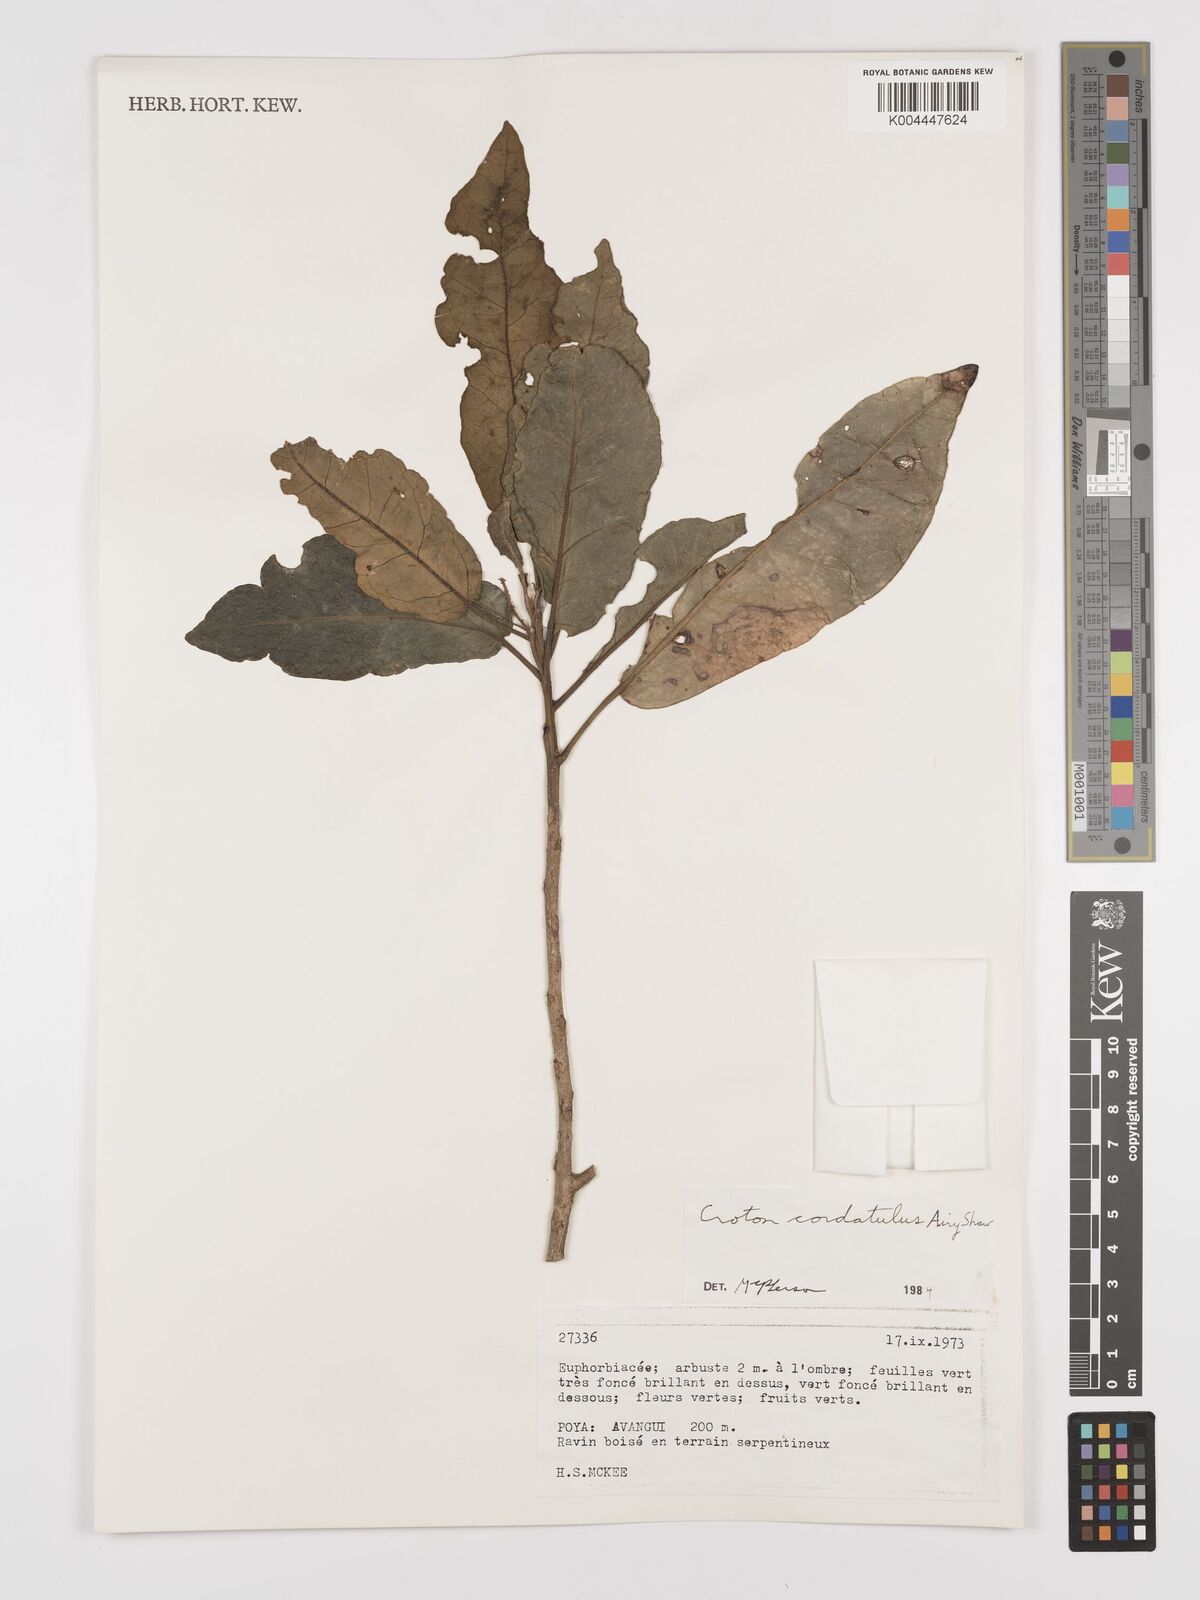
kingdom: Plantae
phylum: Tracheophyta
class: Magnoliopsida
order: Malpighiales
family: Euphorbiaceae
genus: Croton
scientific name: Croton cordatulus
